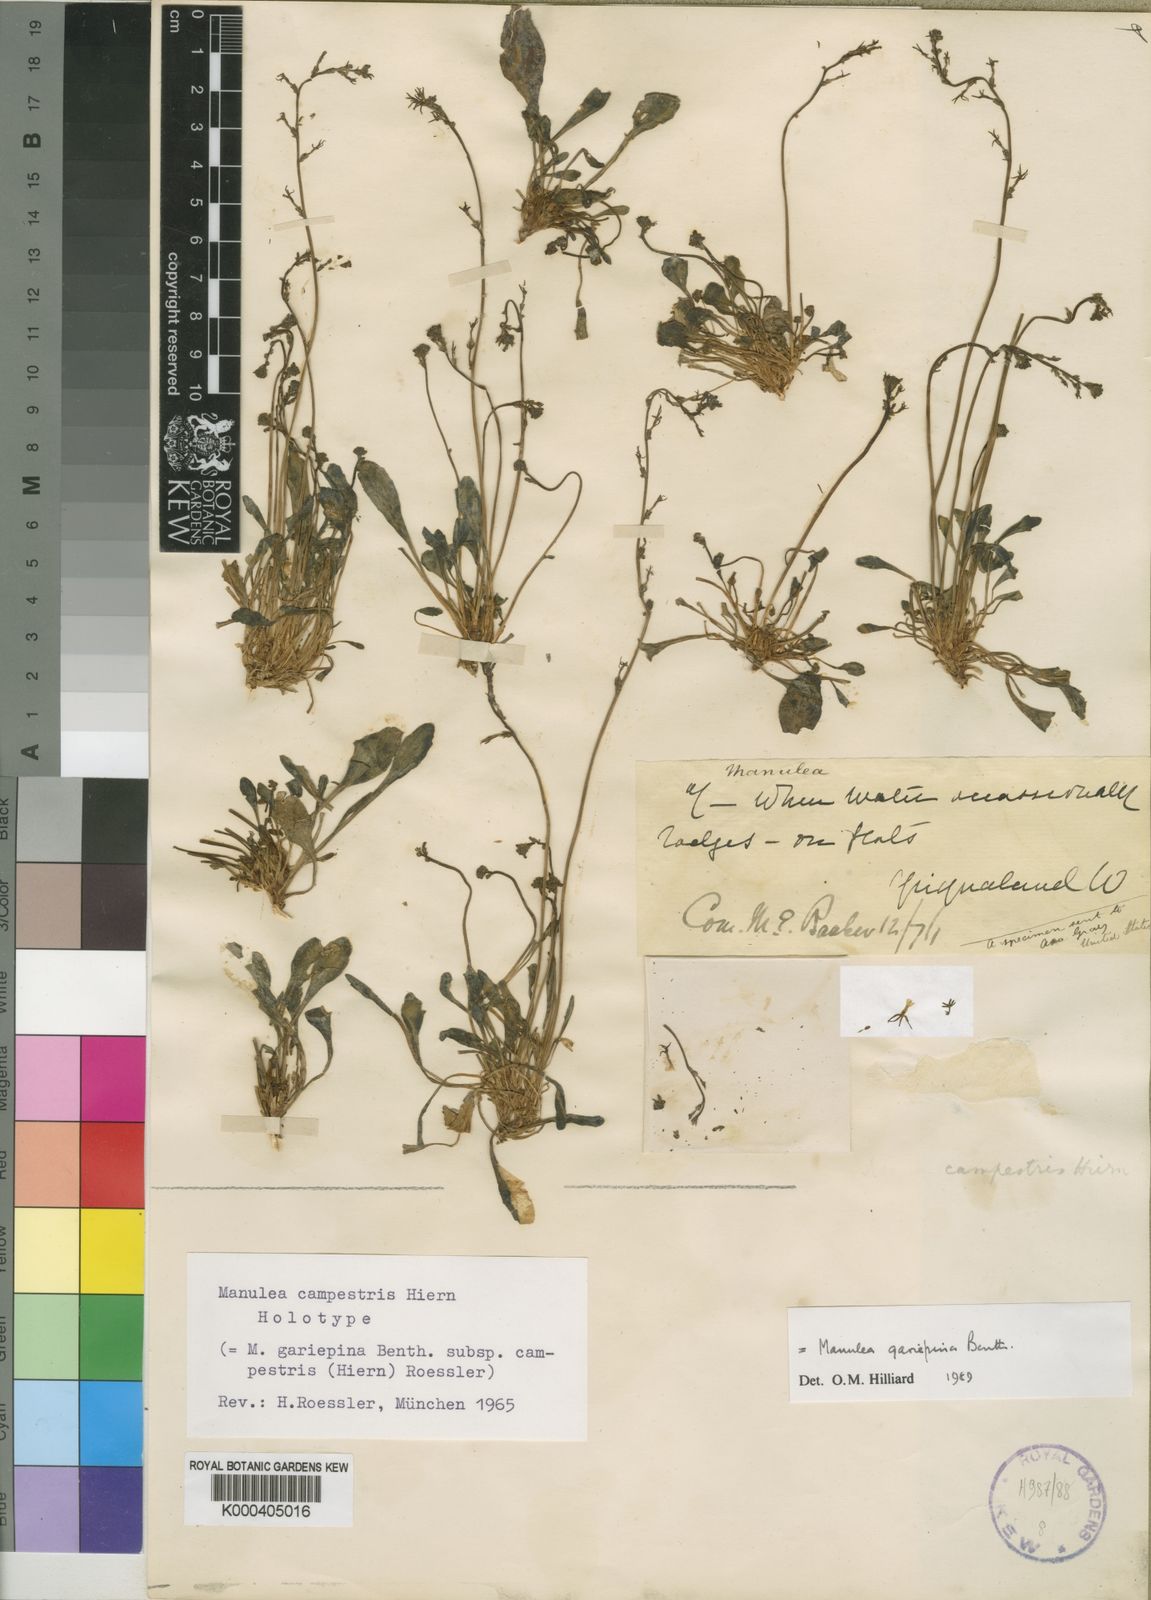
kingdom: Plantae
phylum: Tracheophyta
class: Magnoliopsida
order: Lamiales
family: Scrophulariaceae
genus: Manulea
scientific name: Manulea gariepina
